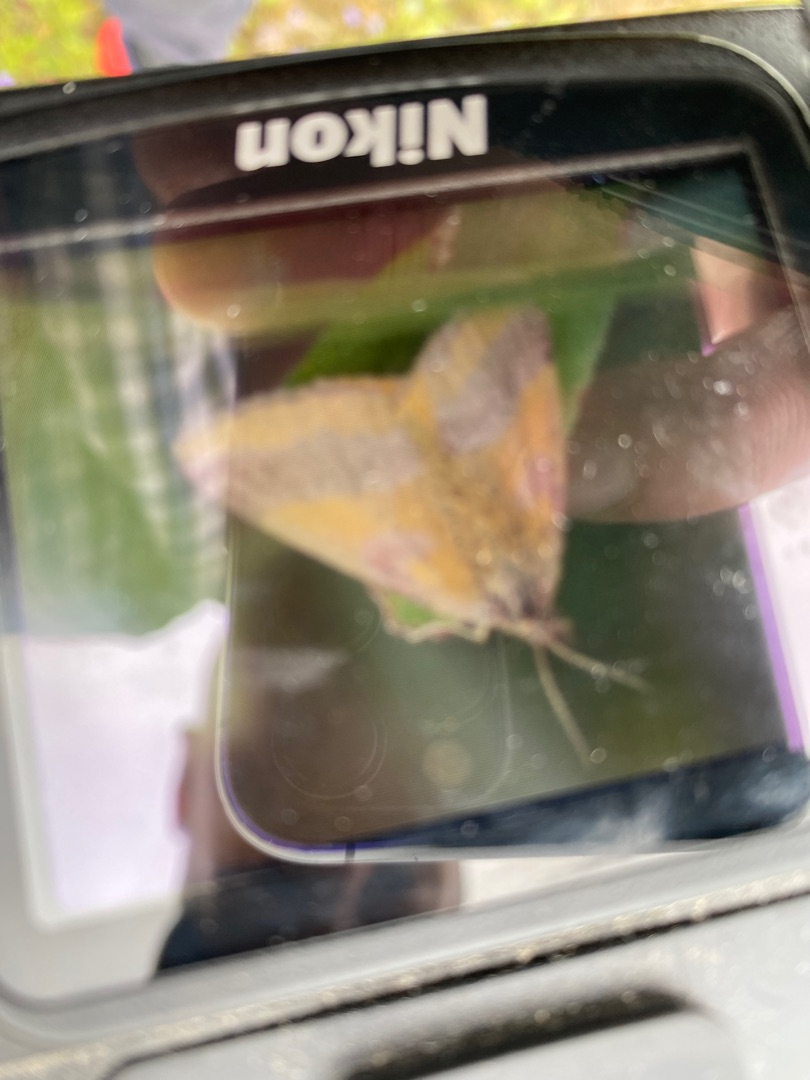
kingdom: Animalia
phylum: Arthropoda
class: Insecta
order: Lepidoptera
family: Geometridae
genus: Lythria
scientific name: Lythria cruentaria
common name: Purpurmåler
